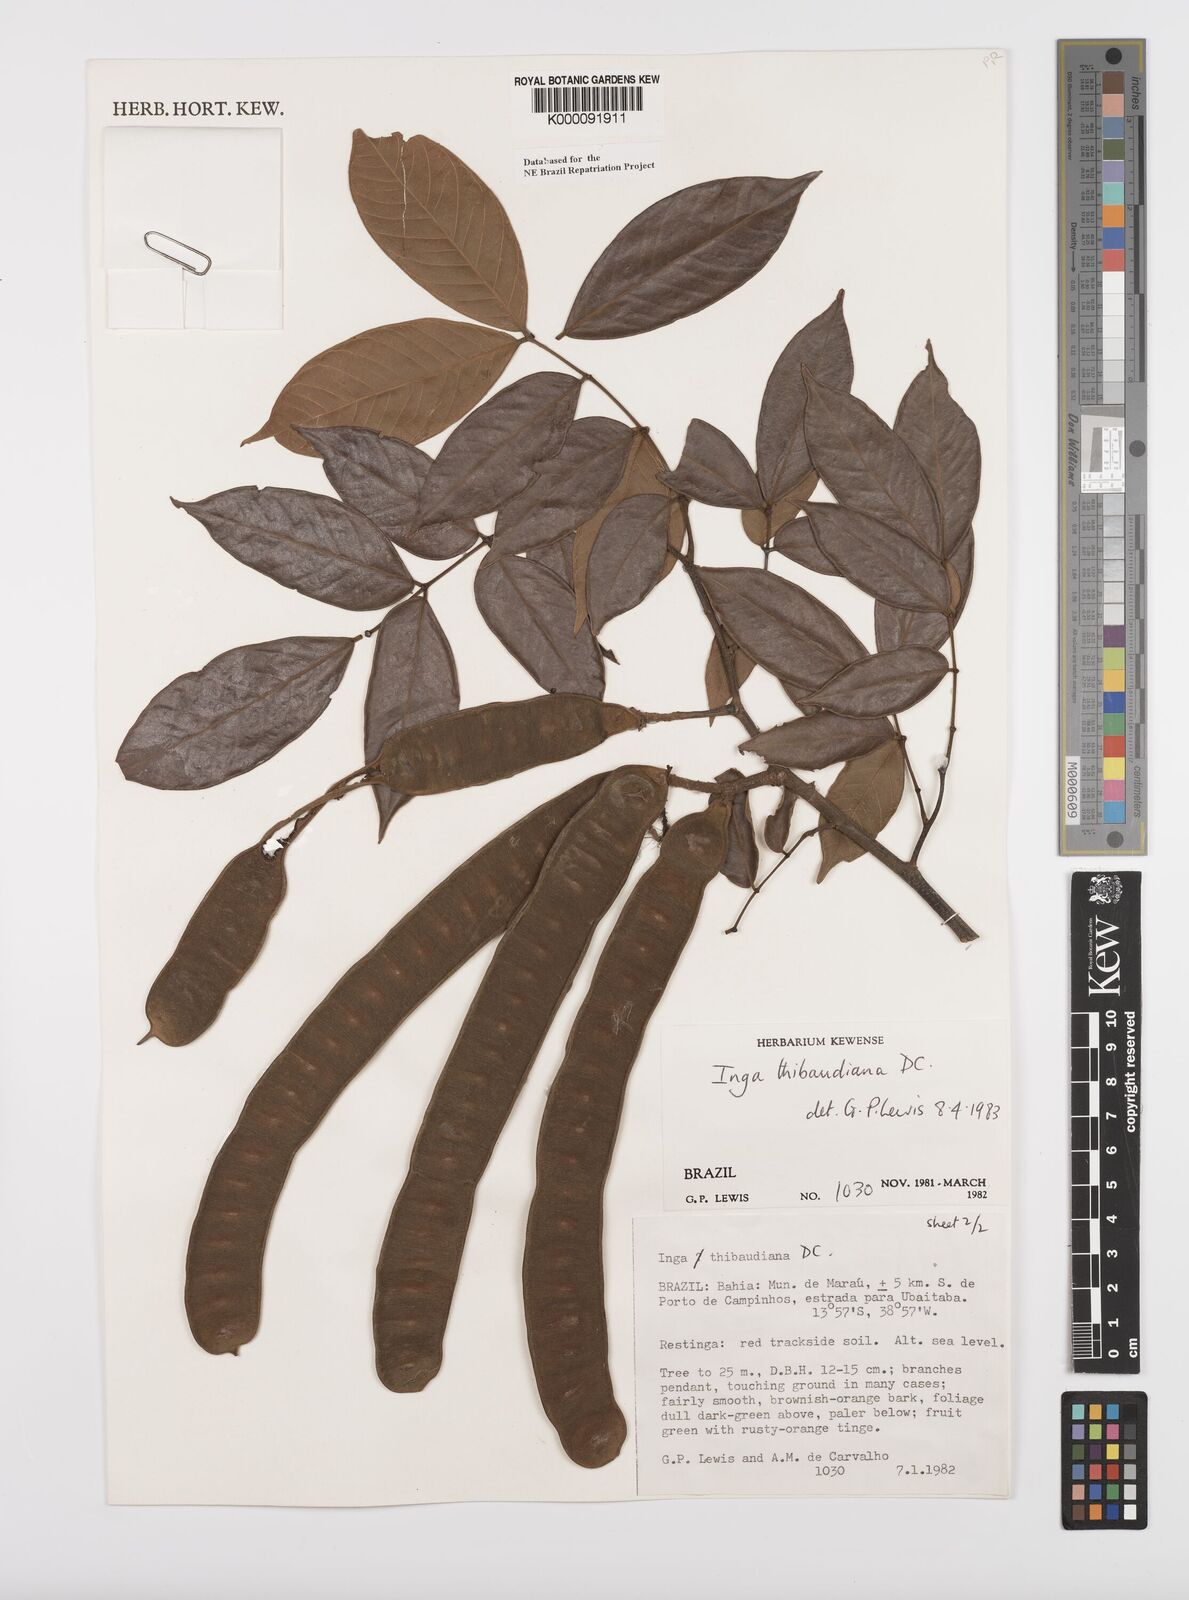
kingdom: Plantae
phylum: Tracheophyta
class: Magnoliopsida
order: Fabales
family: Fabaceae
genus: Inga
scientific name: Inga thibaudiana
